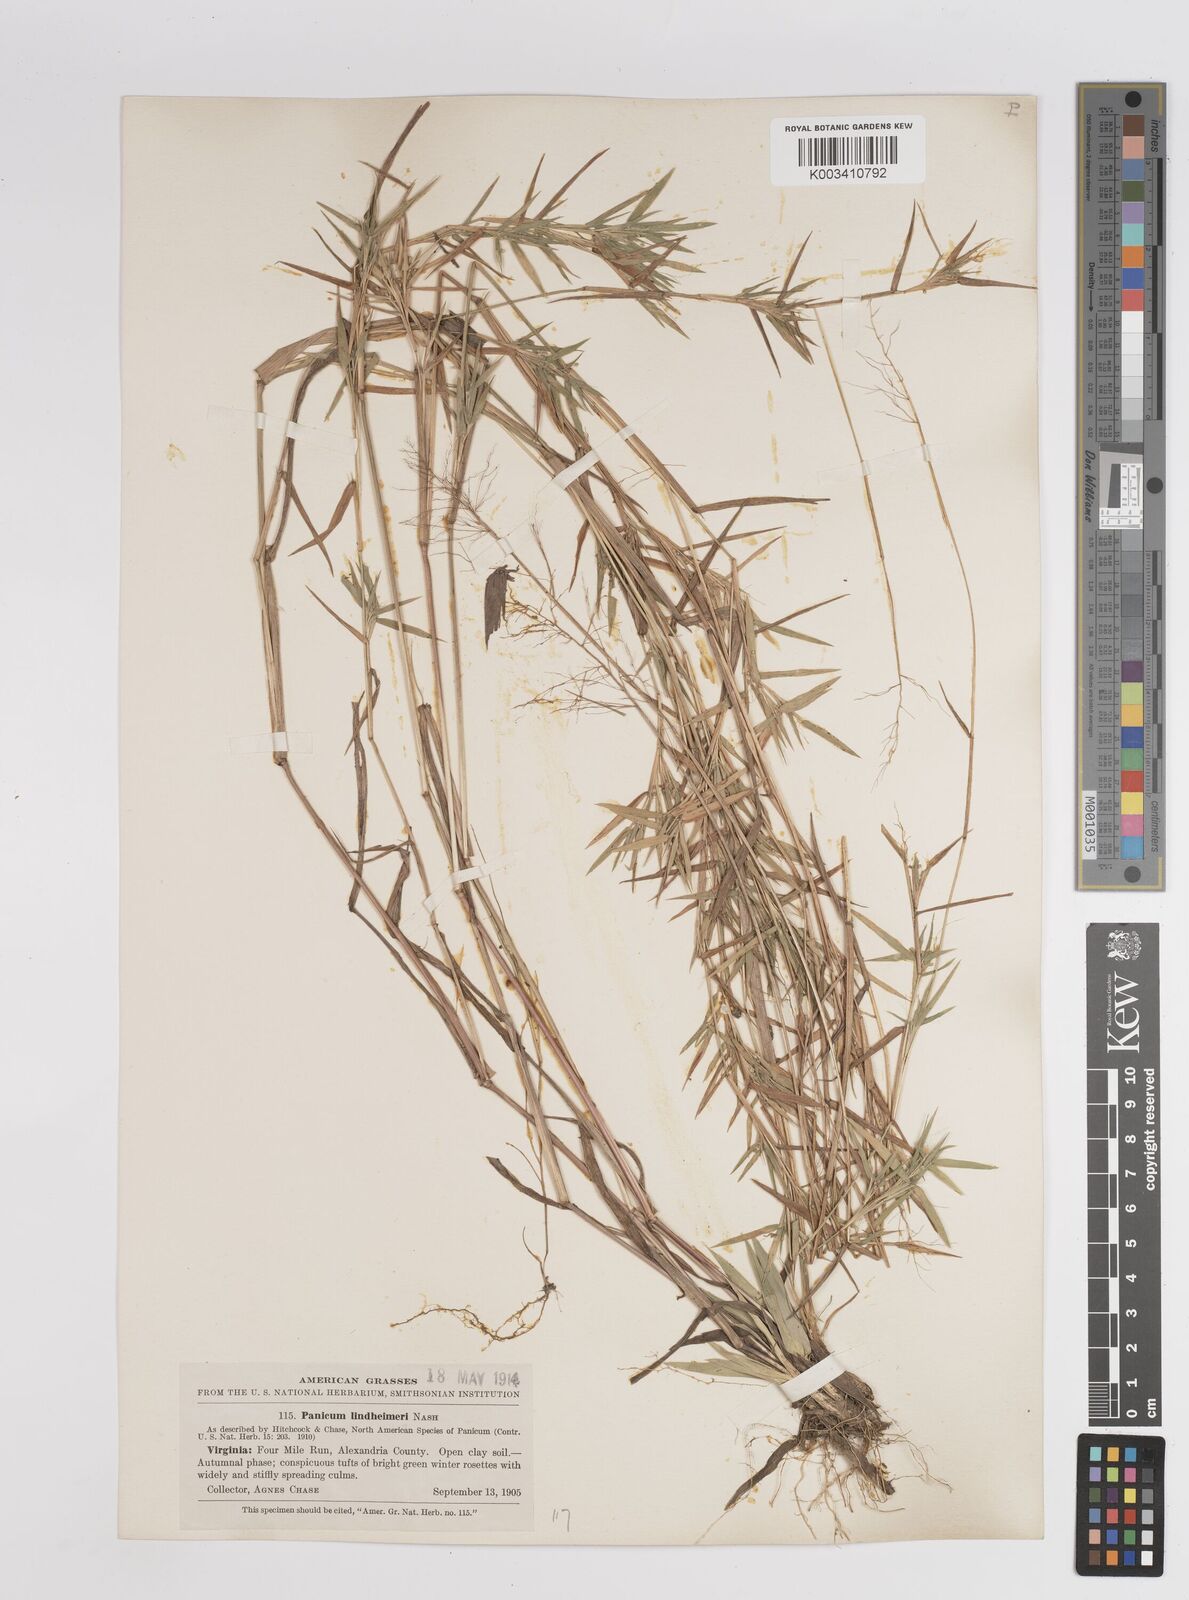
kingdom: Plantae
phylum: Tracheophyta
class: Liliopsida
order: Poales
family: Poaceae
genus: Dichanthelium
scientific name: Dichanthelium acuminatum
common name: Hairy panic grass
